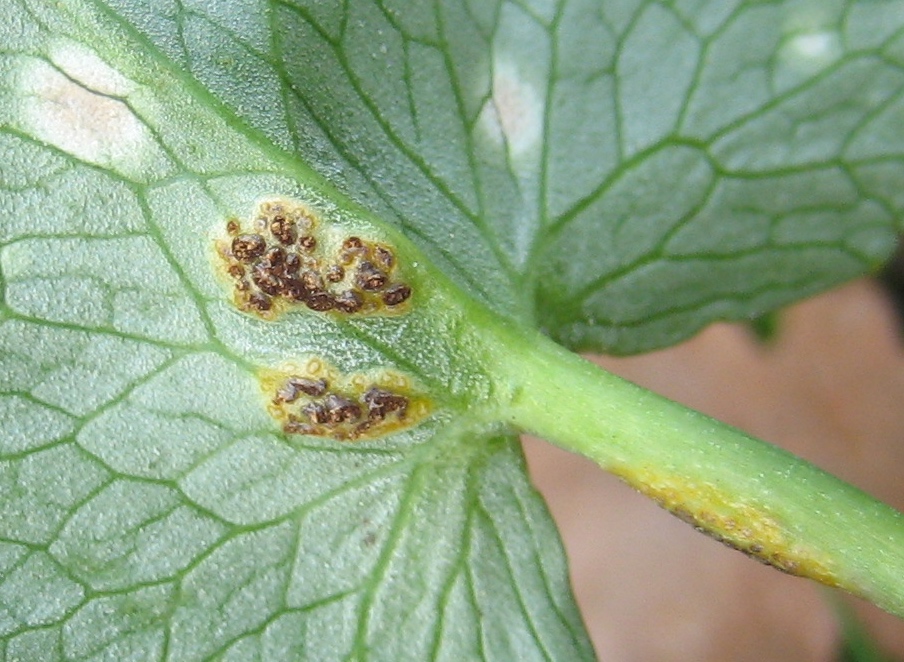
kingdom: Fungi
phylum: Basidiomycota
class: Pucciniomycetes
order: Pucciniales
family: Pucciniaceae
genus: Uromyces
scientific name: Uromyces ficariae
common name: vorterod-encellerust
